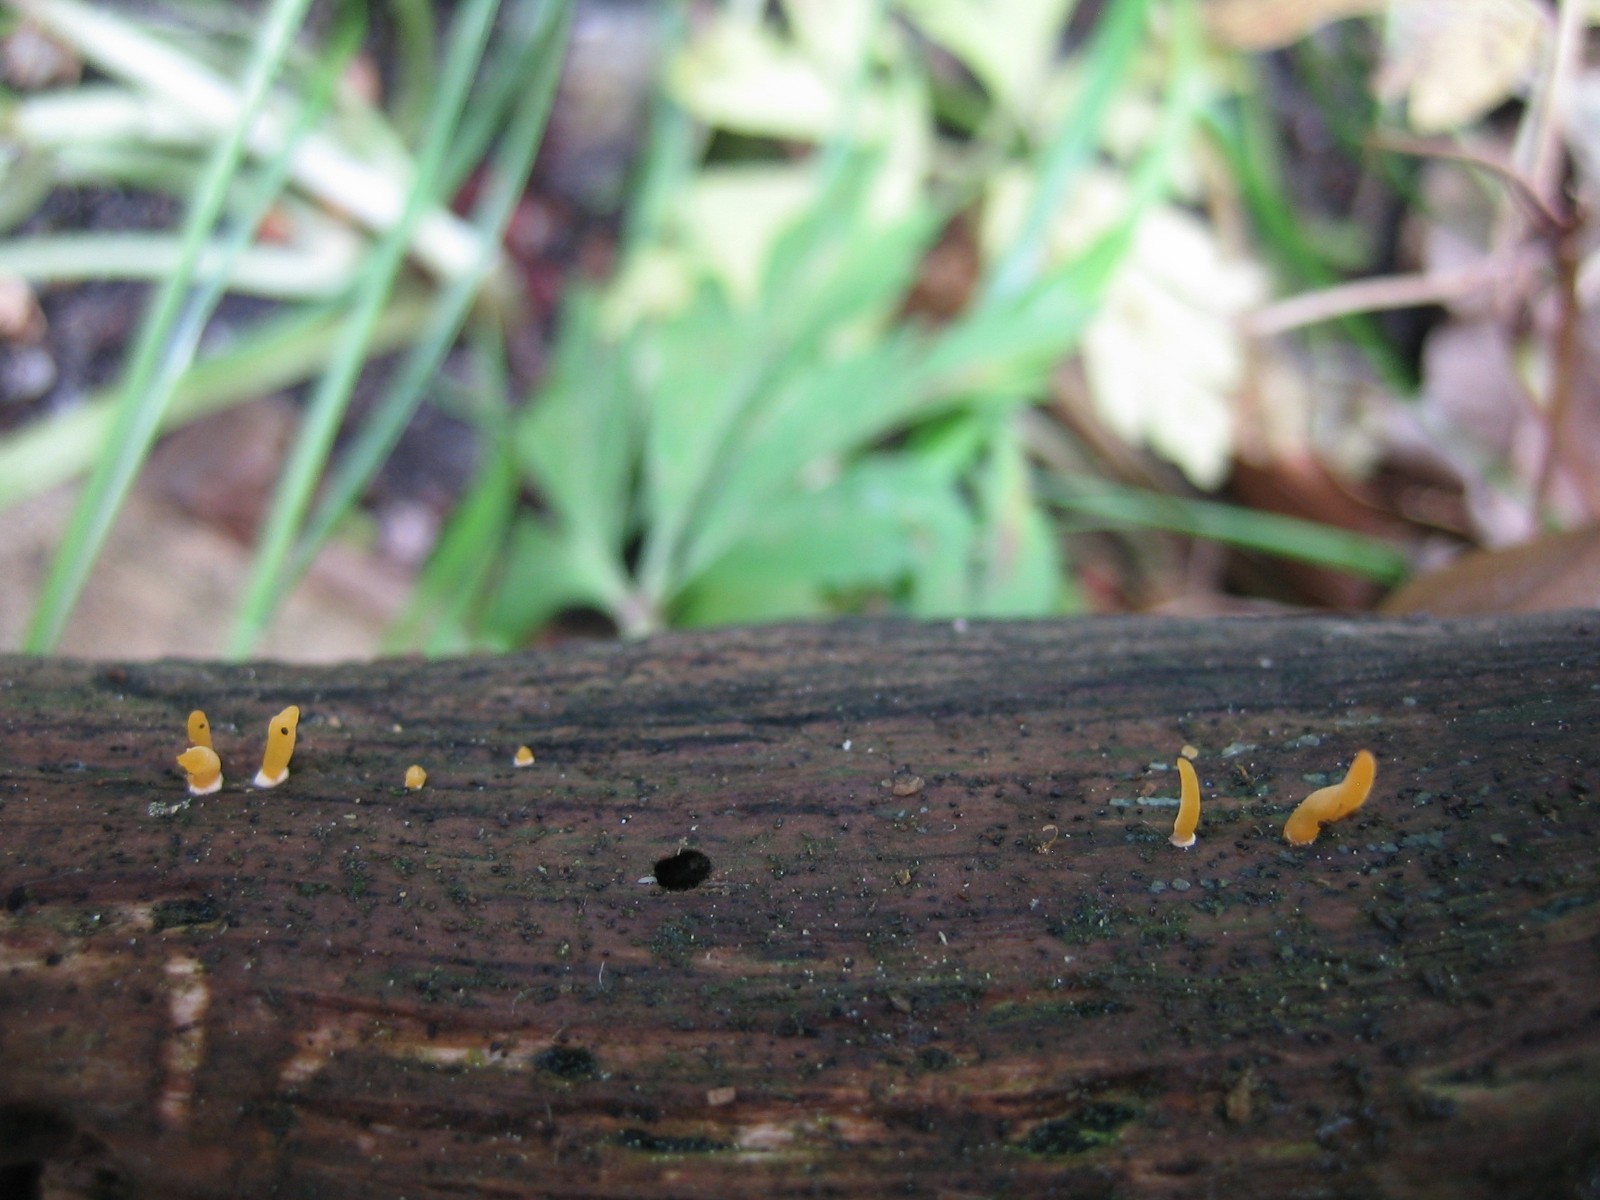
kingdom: Fungi
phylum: Basidiomycota
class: Dacrymycetes
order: Dacrymycetales
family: Dacrymycetaceae
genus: Calocera
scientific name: Calocera cornea
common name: liden guldgaffel
